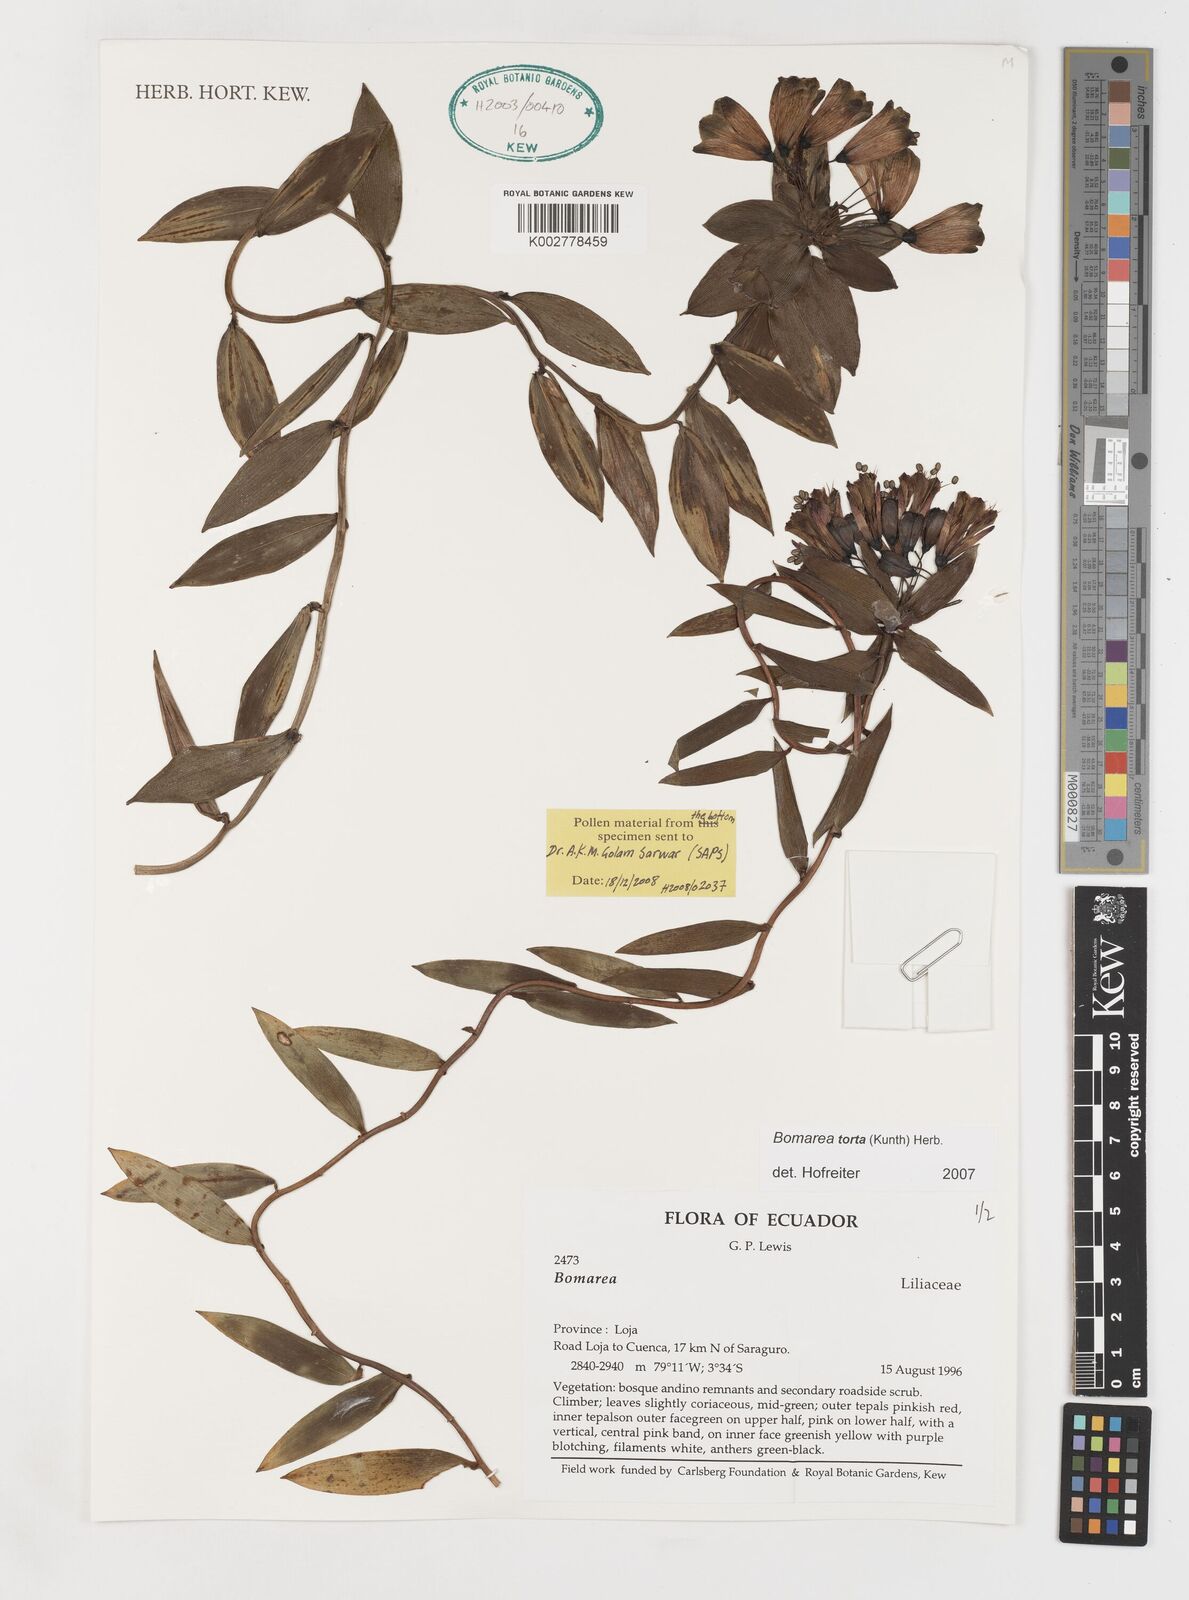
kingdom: Plantae
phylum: Tracheophyta
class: Liliopsida
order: Liliales
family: Alstroemeriaceae
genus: Bomarea
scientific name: Bomarea torta
